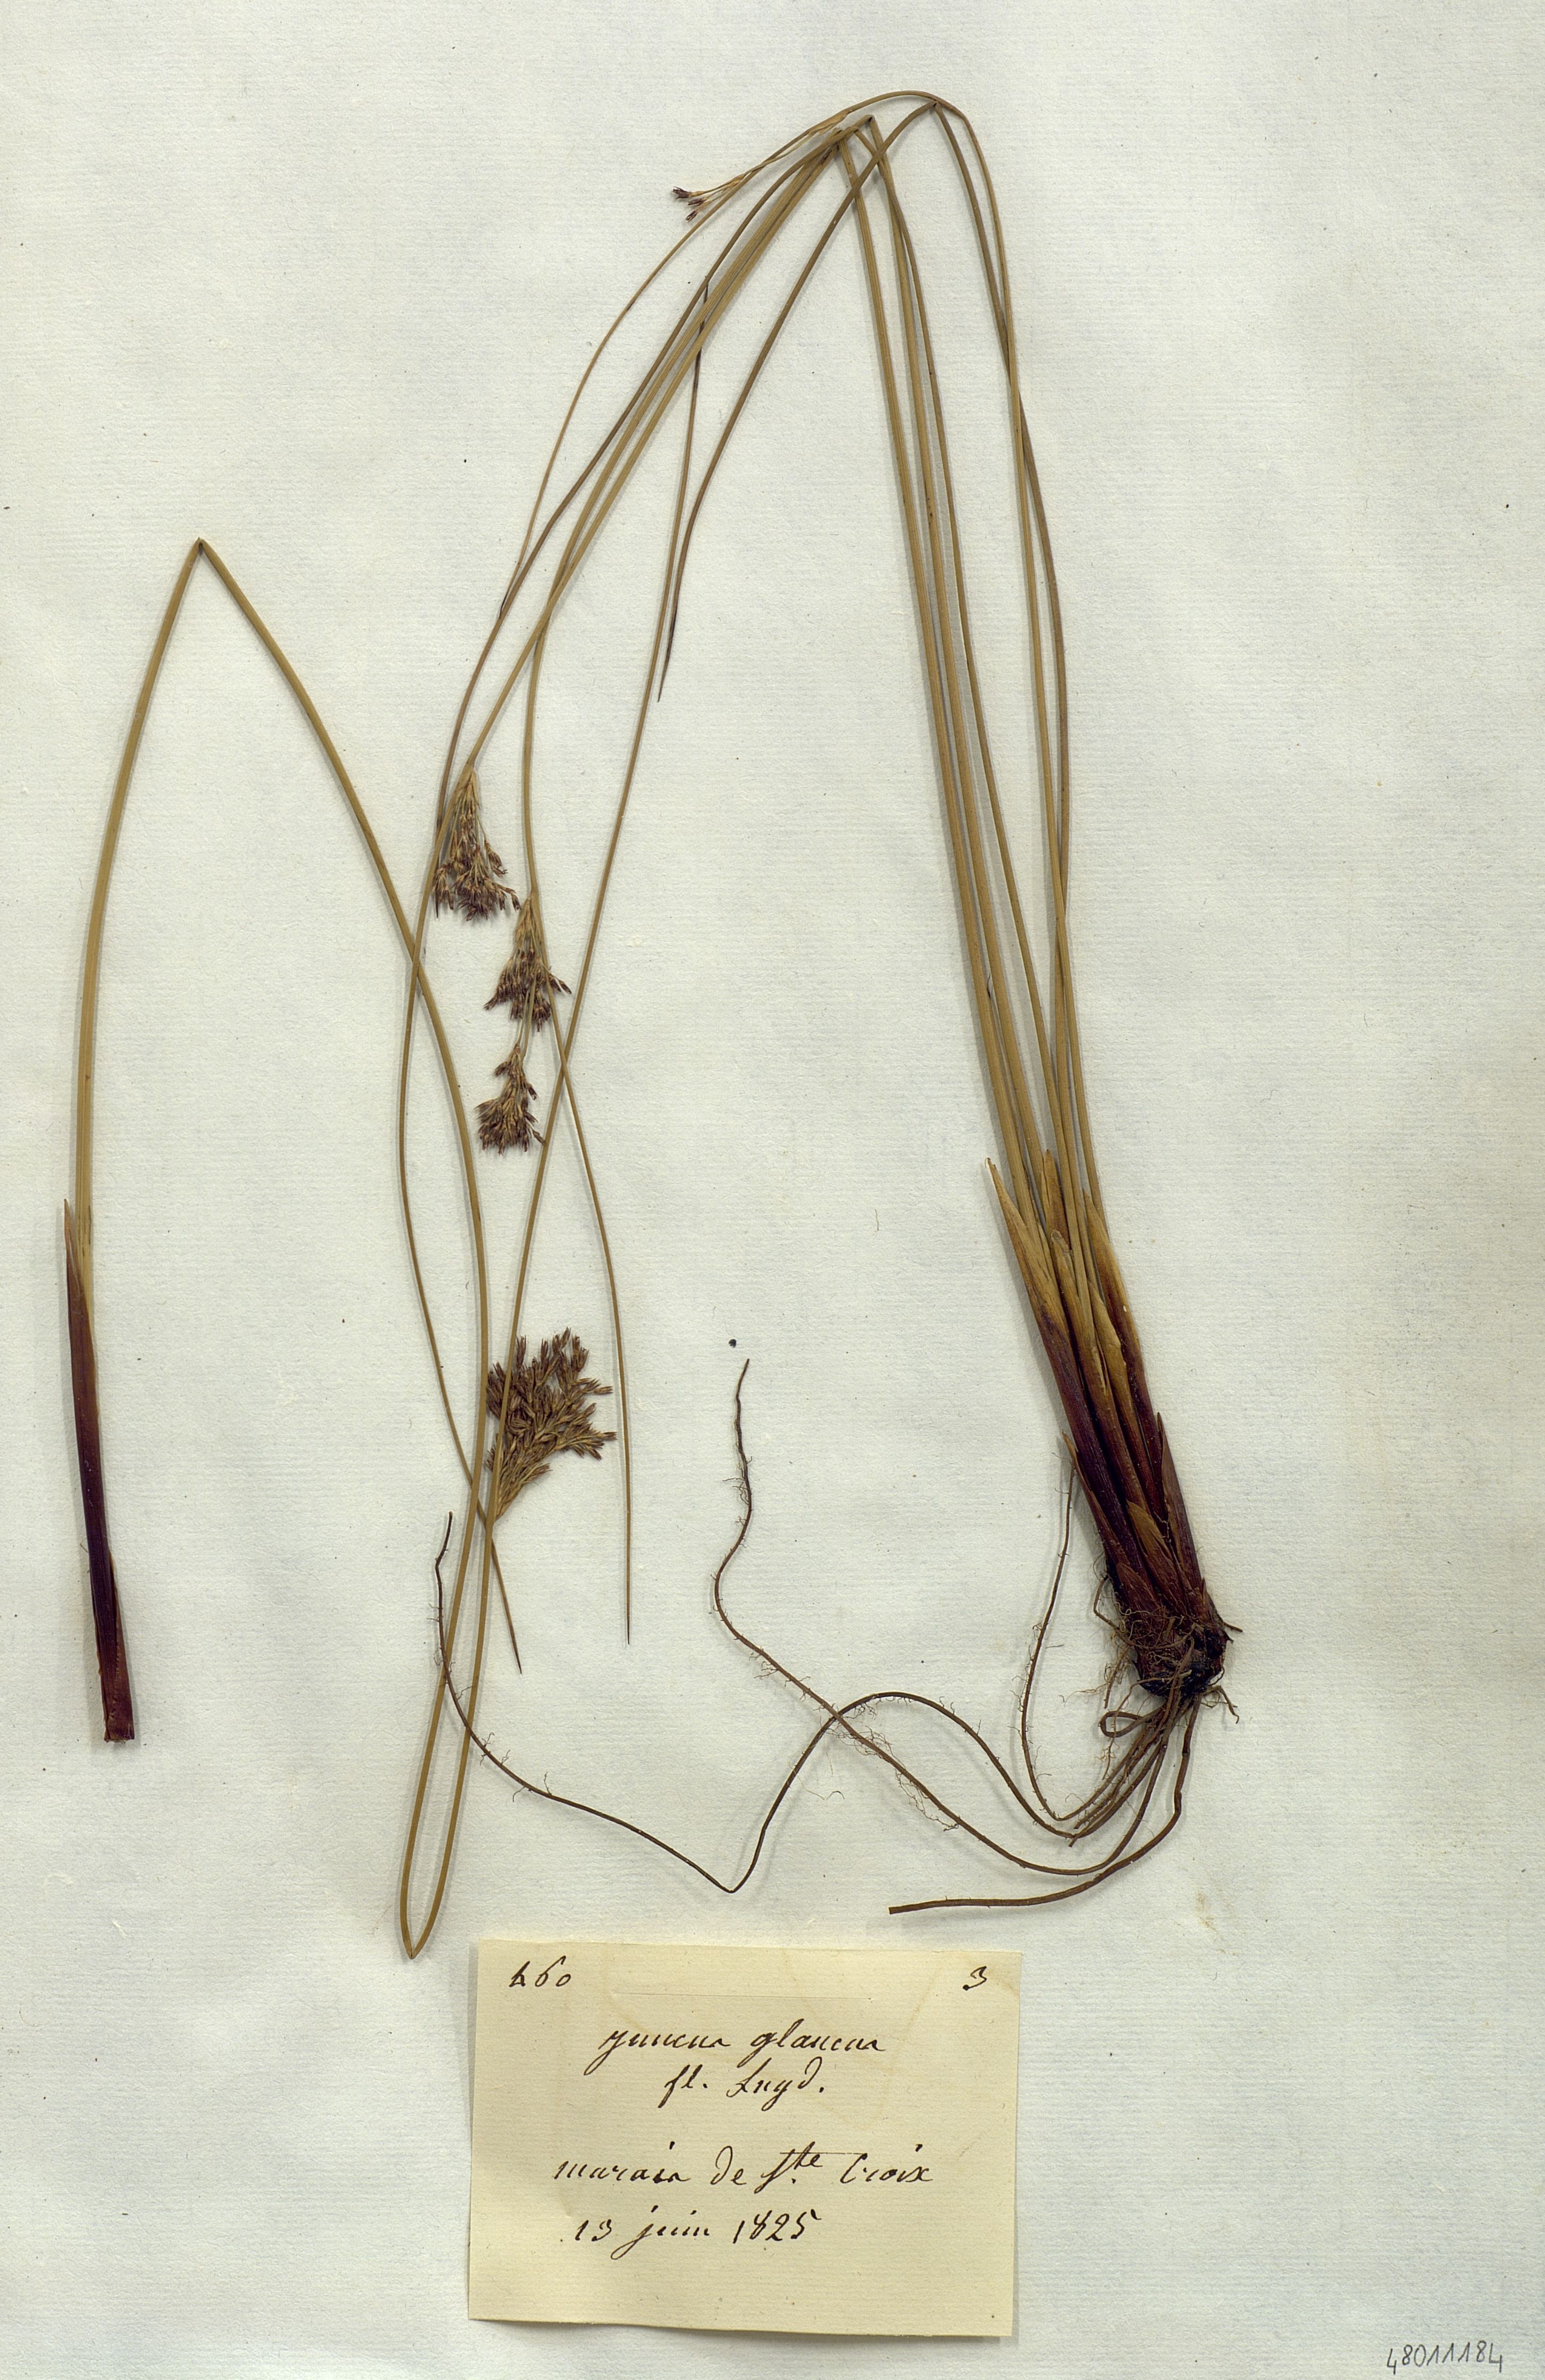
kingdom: Plantae
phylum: Tracheophyta
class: Liliopsida
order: Poales
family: Juncaceae
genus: Juncus
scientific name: Juncus glaucus
